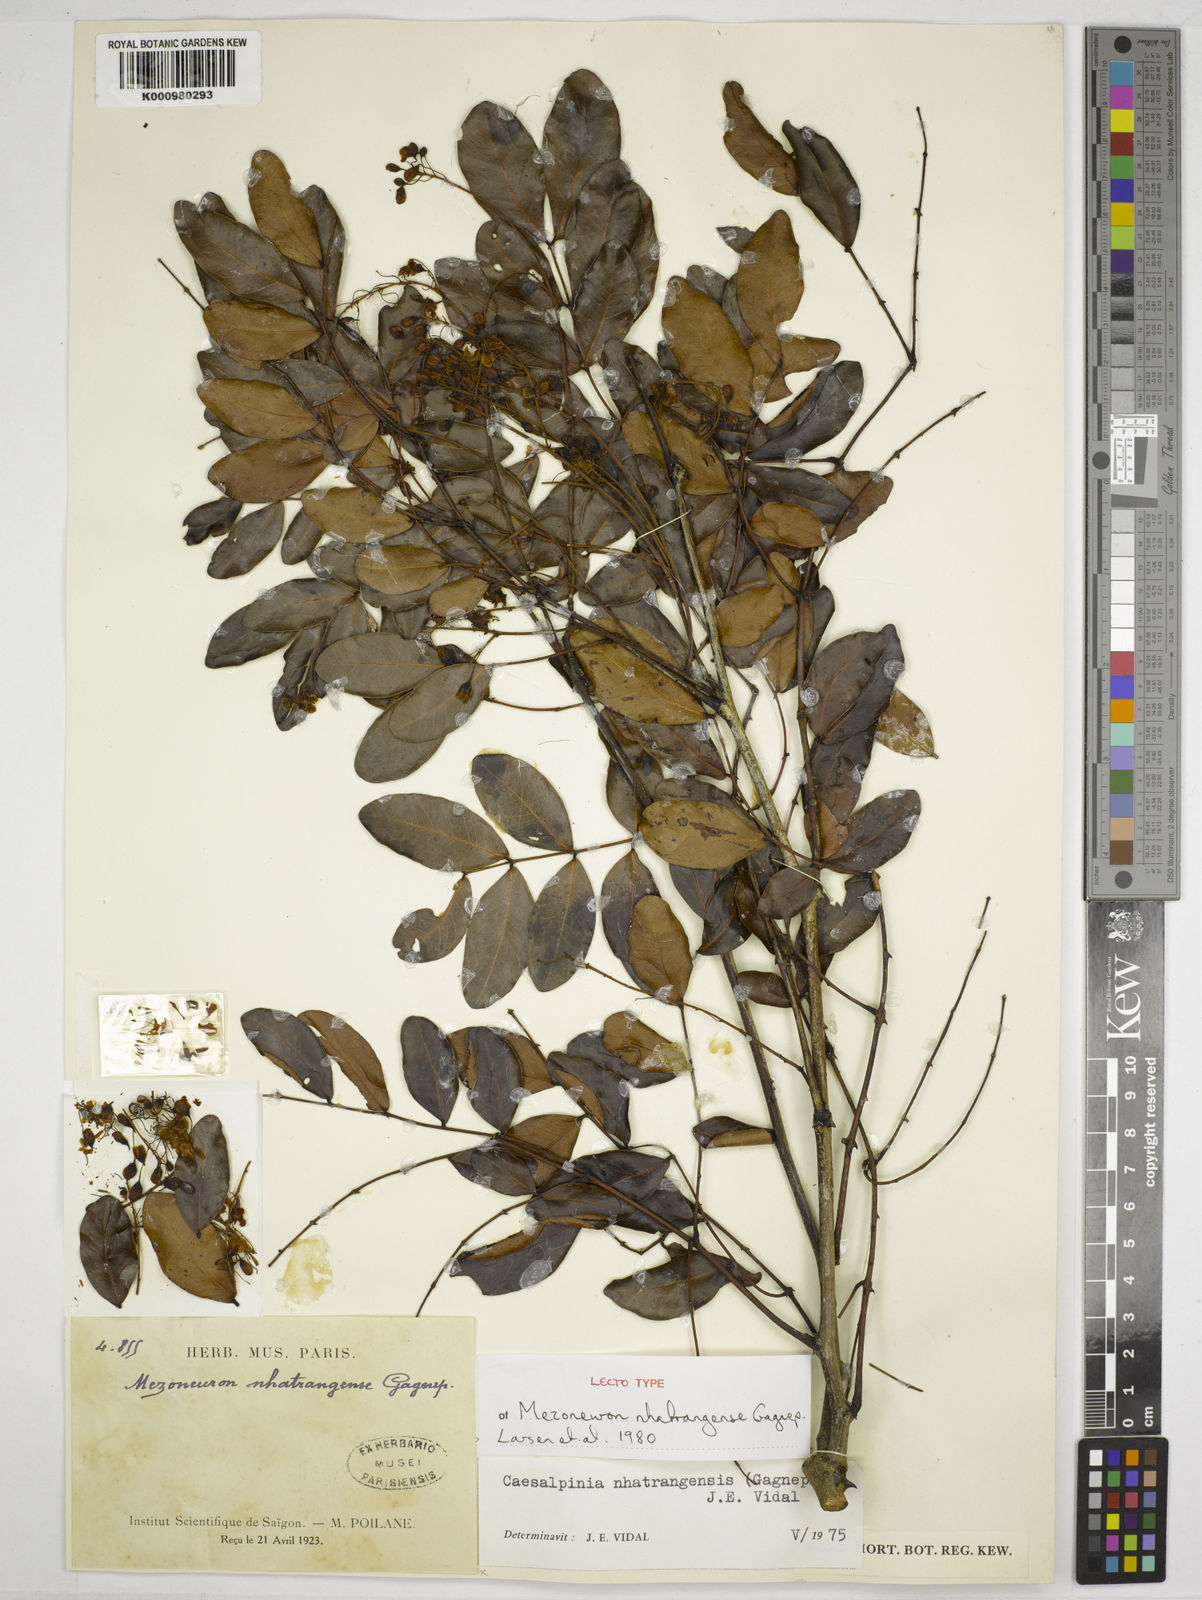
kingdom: Plantae
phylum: Tracheophyta
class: Magnoliopsida
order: Fabales
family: Fabaceae
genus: Mezoneuron
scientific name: Mezoneuron nhatrangense
